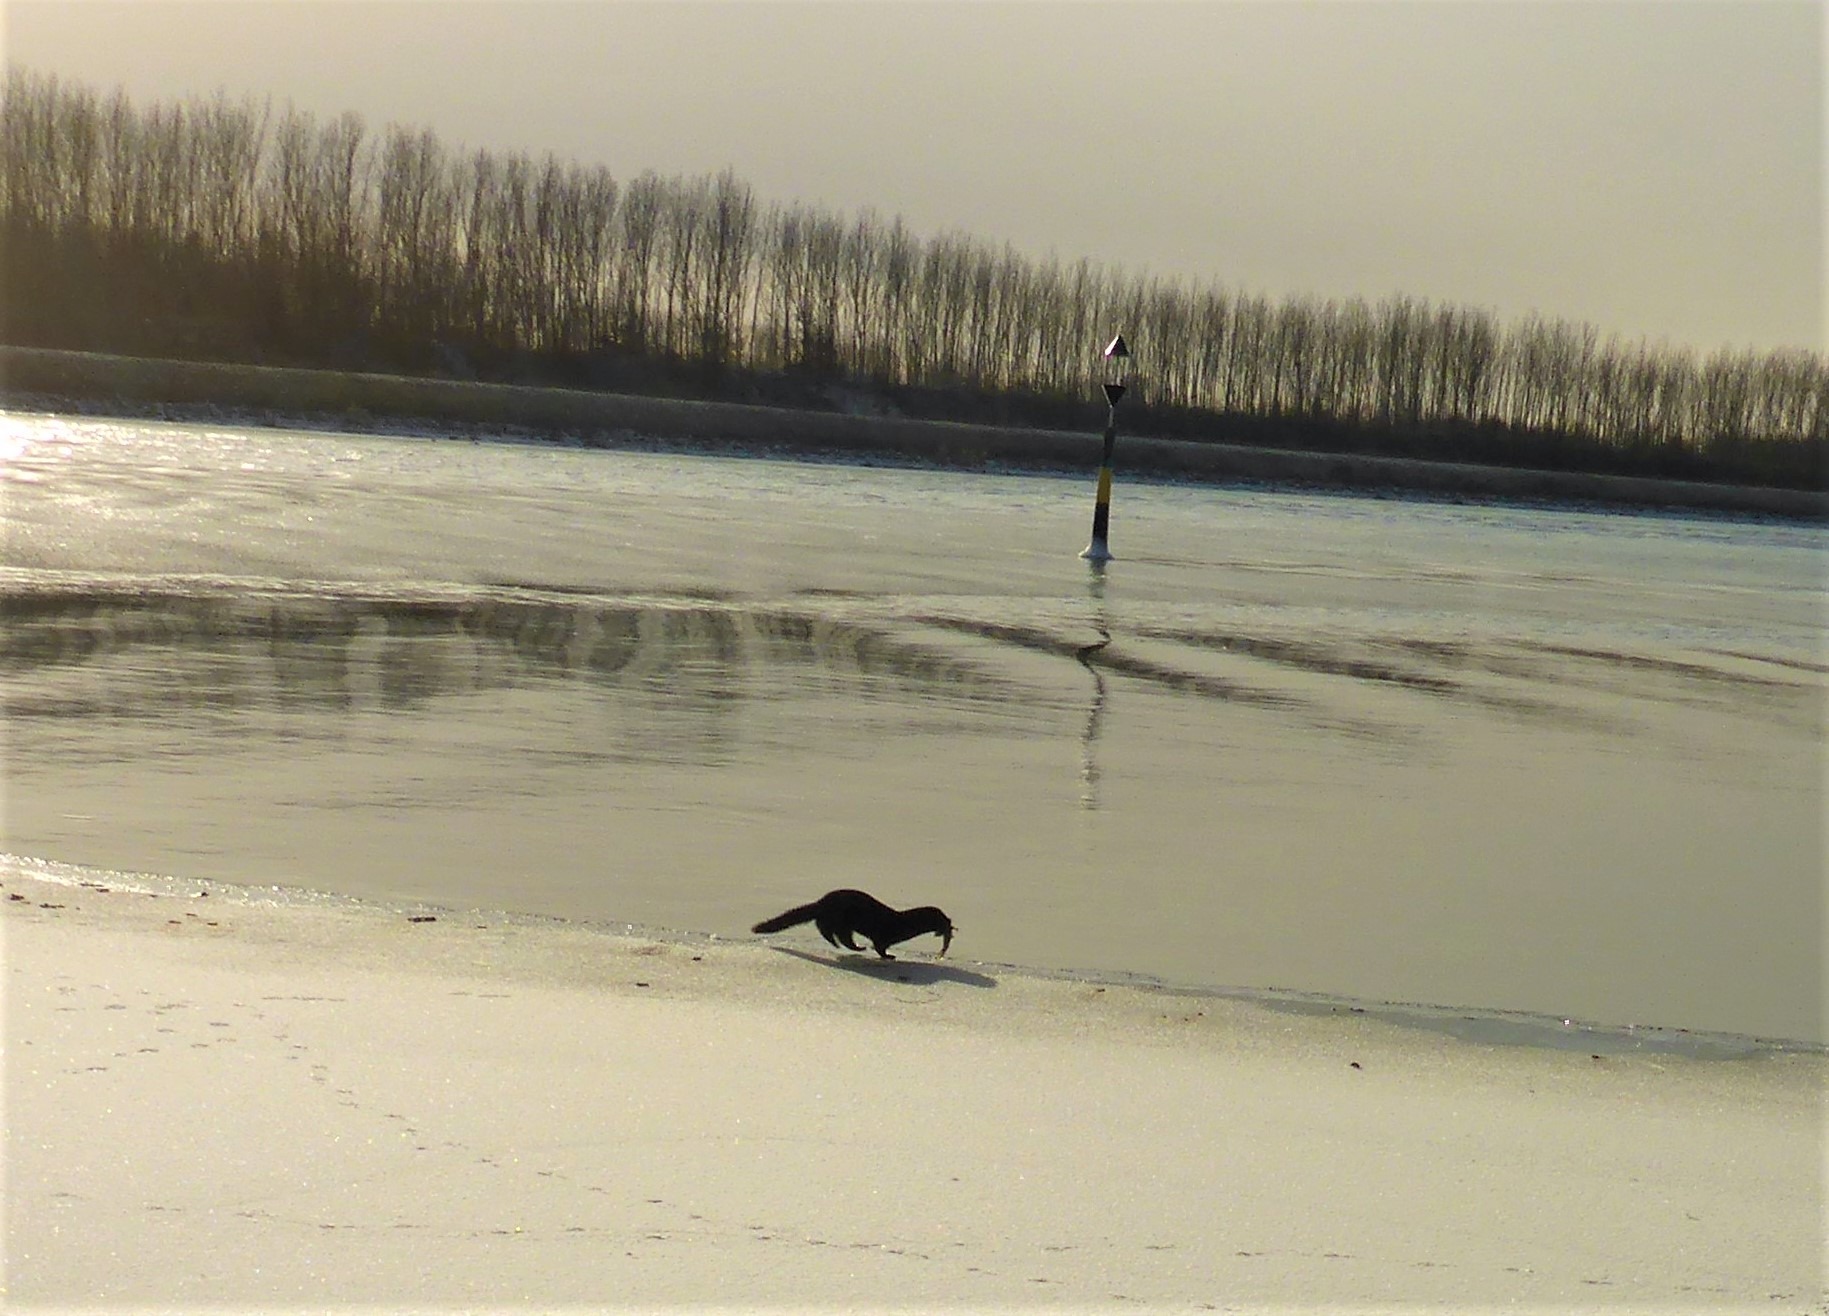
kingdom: Animalia
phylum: Chordata
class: Mammalia
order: Carnivora
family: Mustelidae
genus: Mustela
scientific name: Mustela vison
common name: Mink
